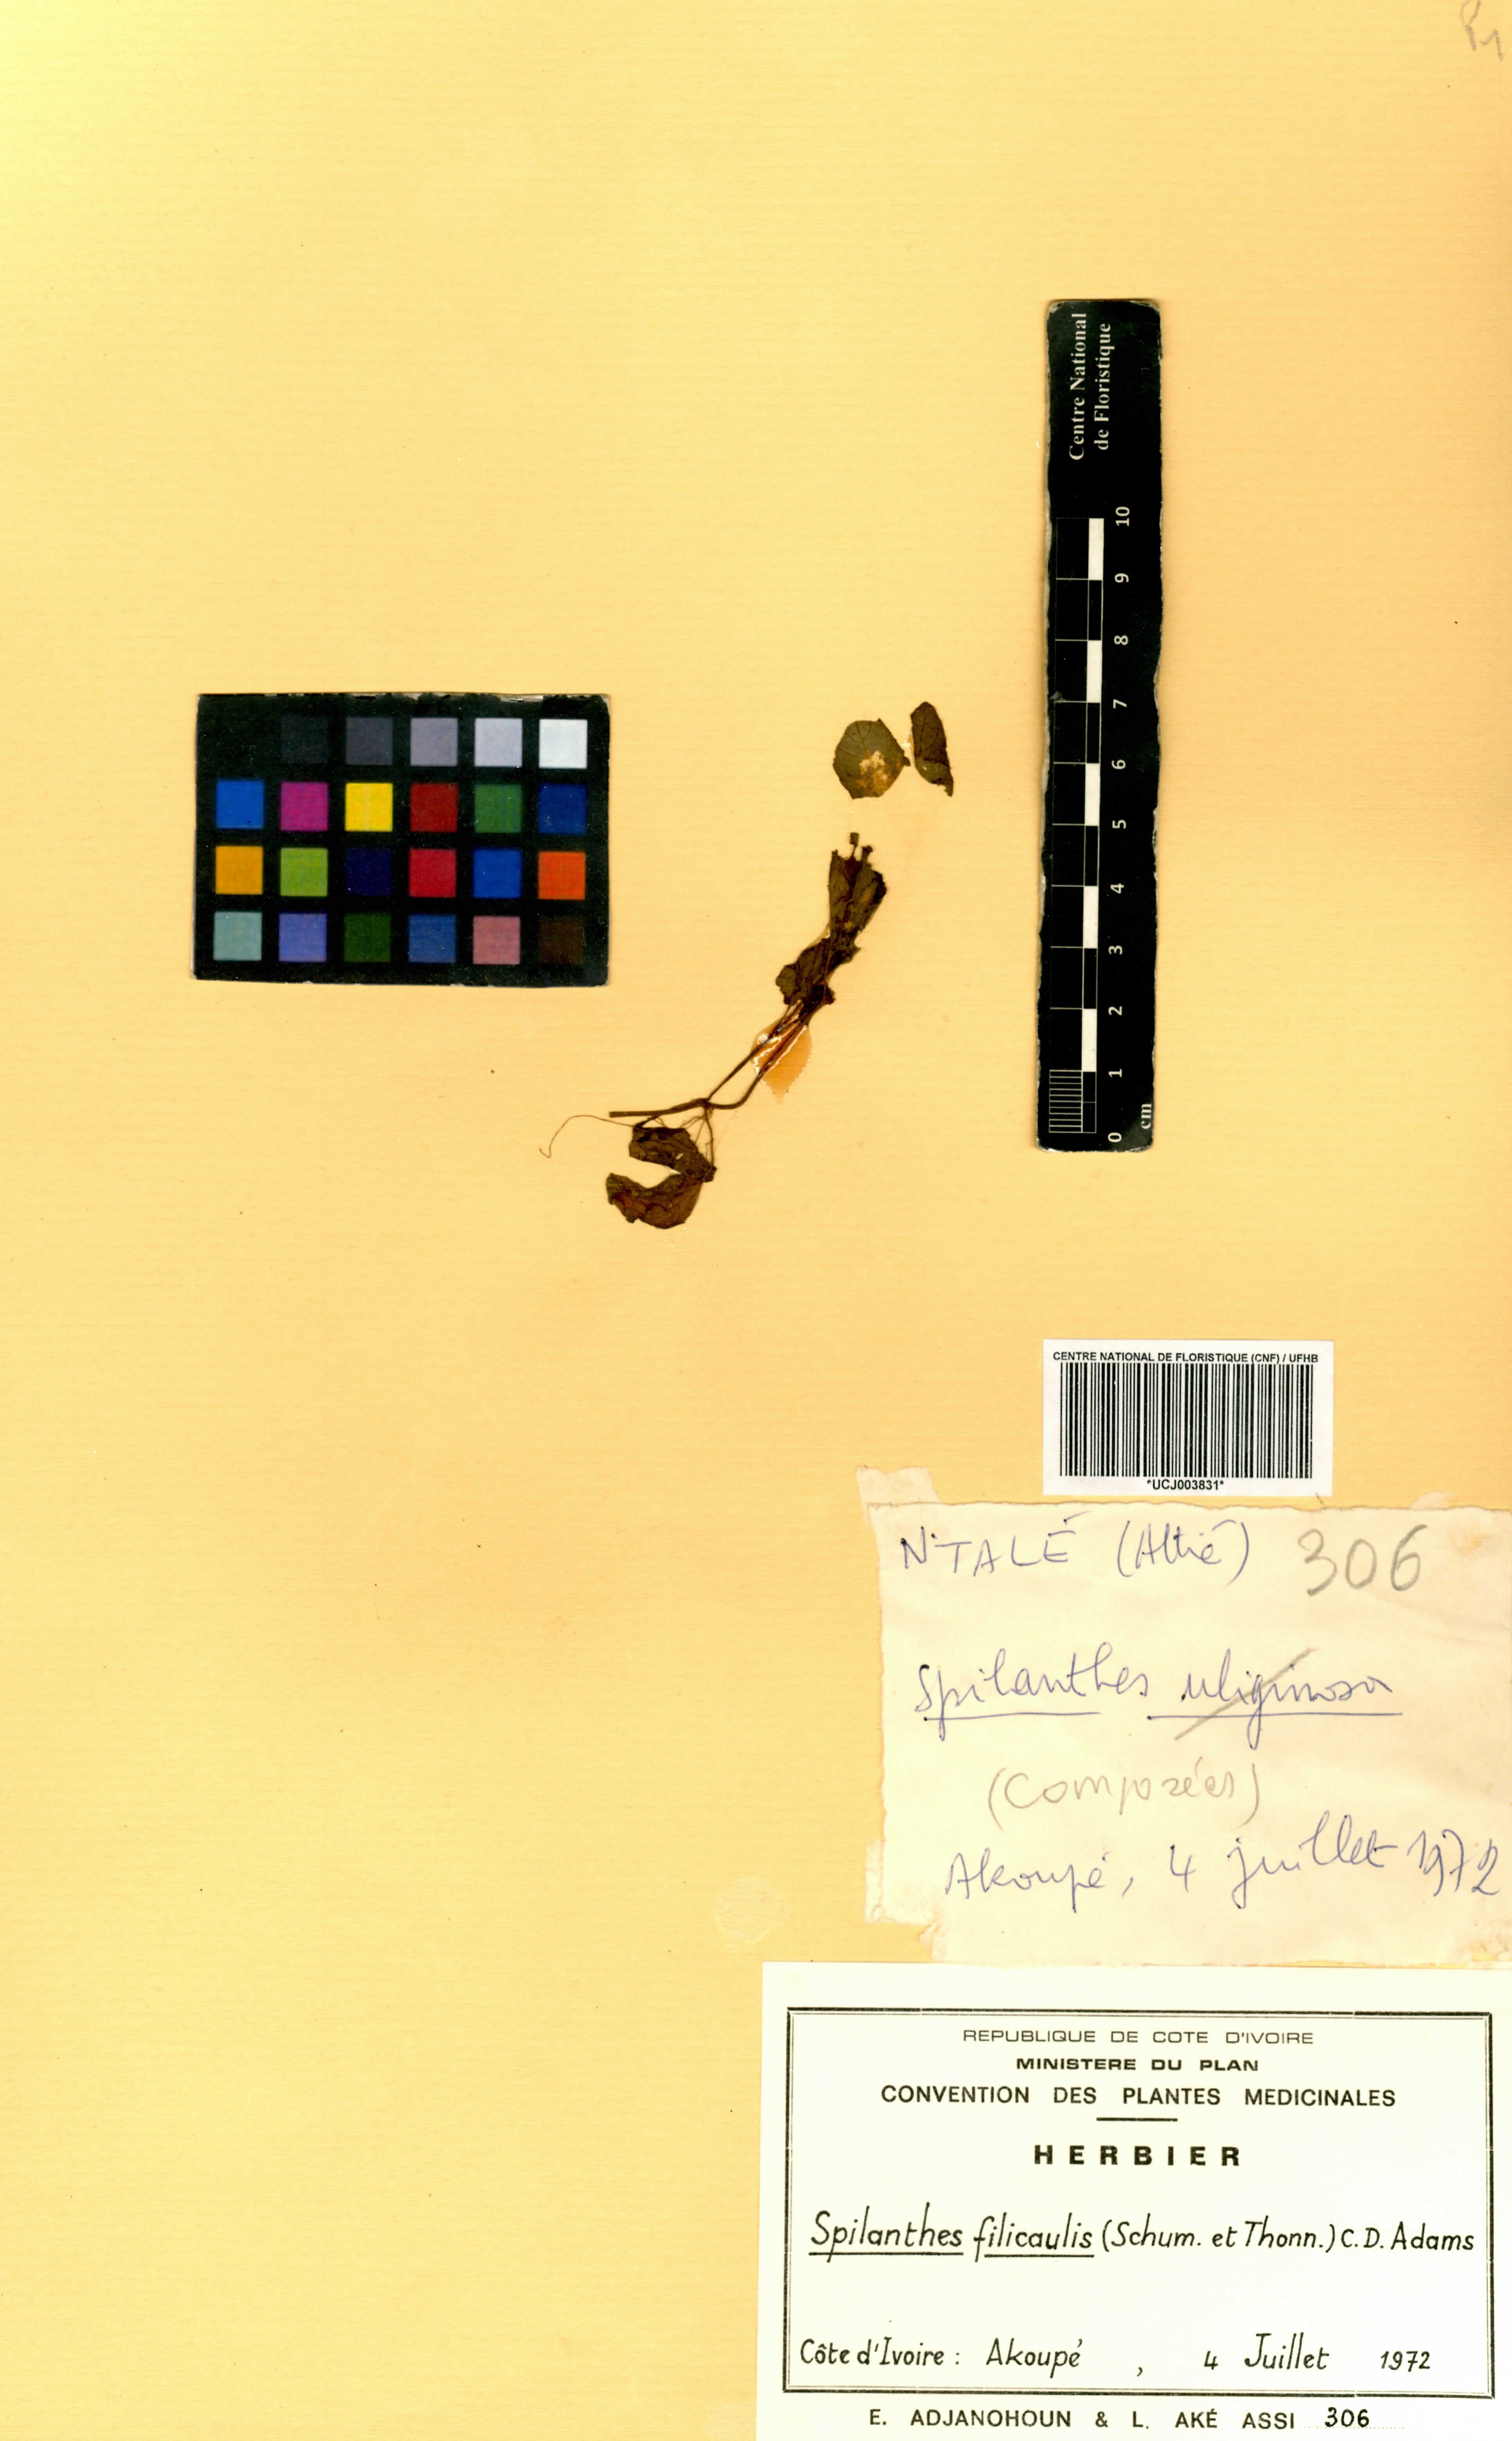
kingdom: Plantae
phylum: Tracheophyta
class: Magnoliopsida
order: Asterales
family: Asteraceae
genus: Acmella
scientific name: Acmella caulirhiza
